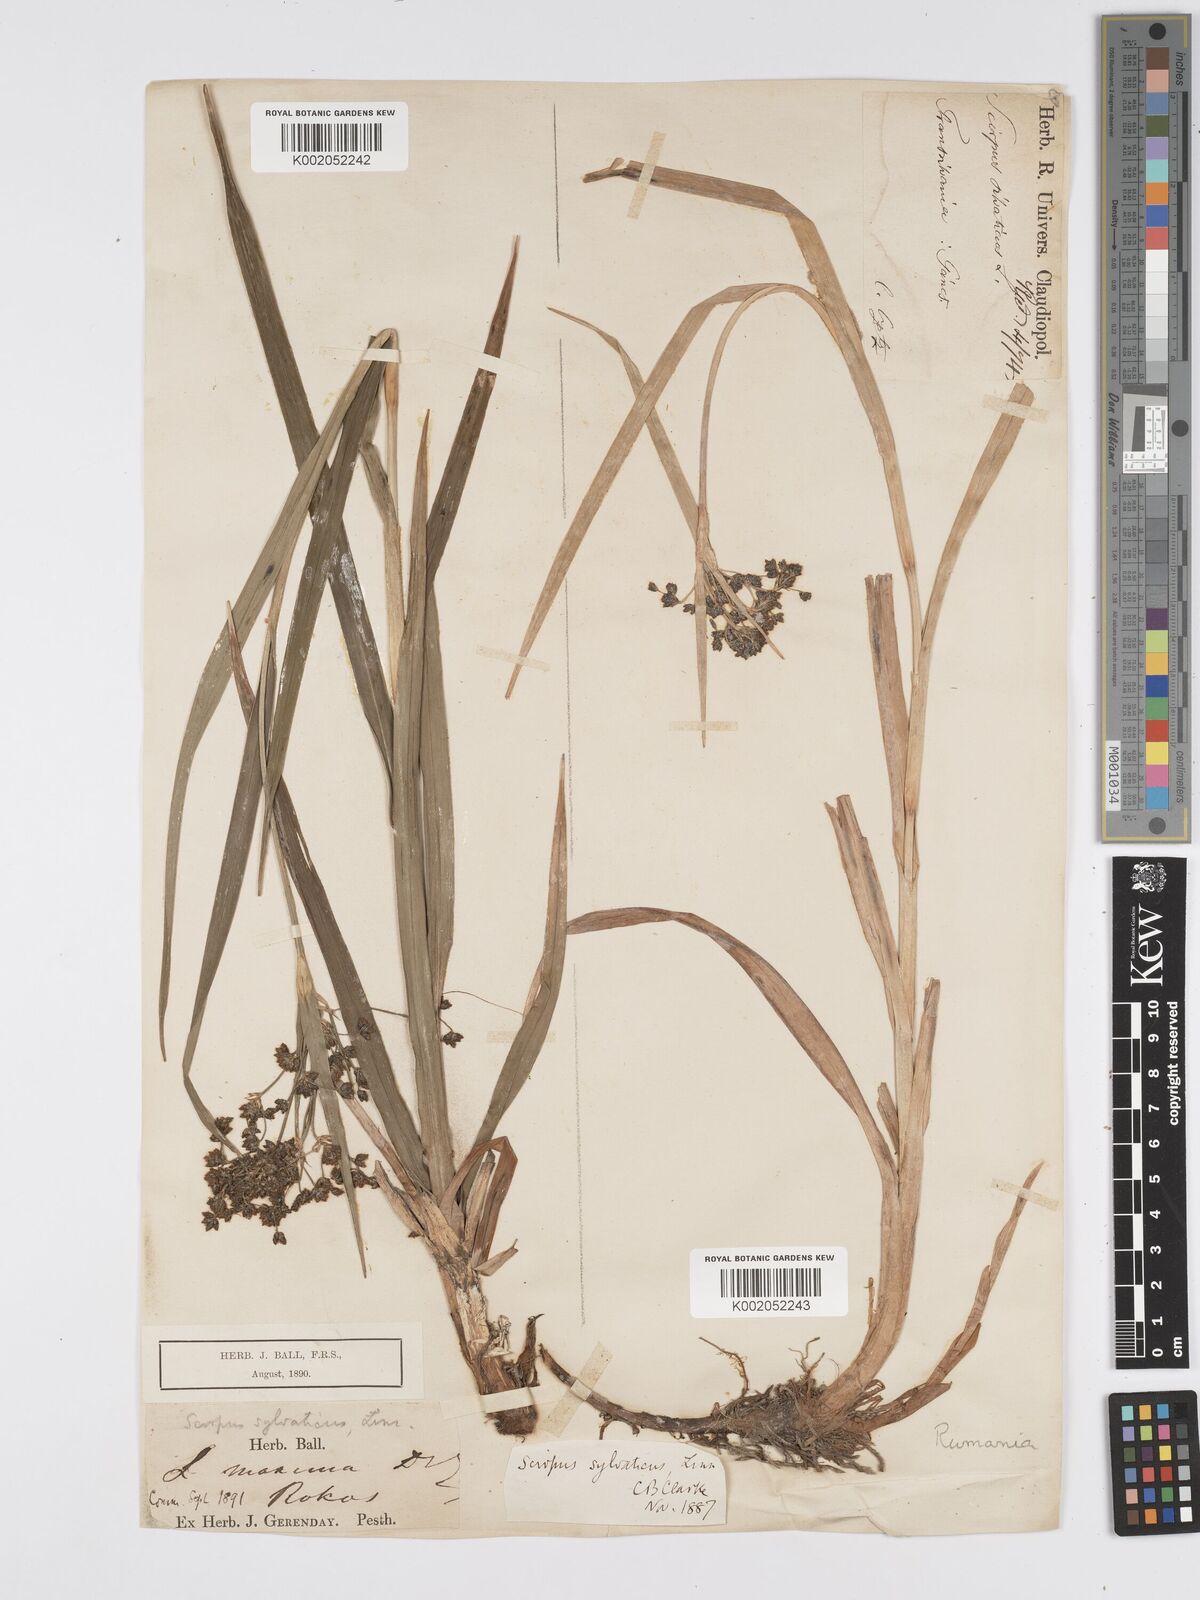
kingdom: Plantae
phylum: Tracheophyta
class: Liliopsida
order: Poales
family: Cyperaceae
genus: Scirpus
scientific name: Scirpus sylvaticus
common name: Wood club-rush
